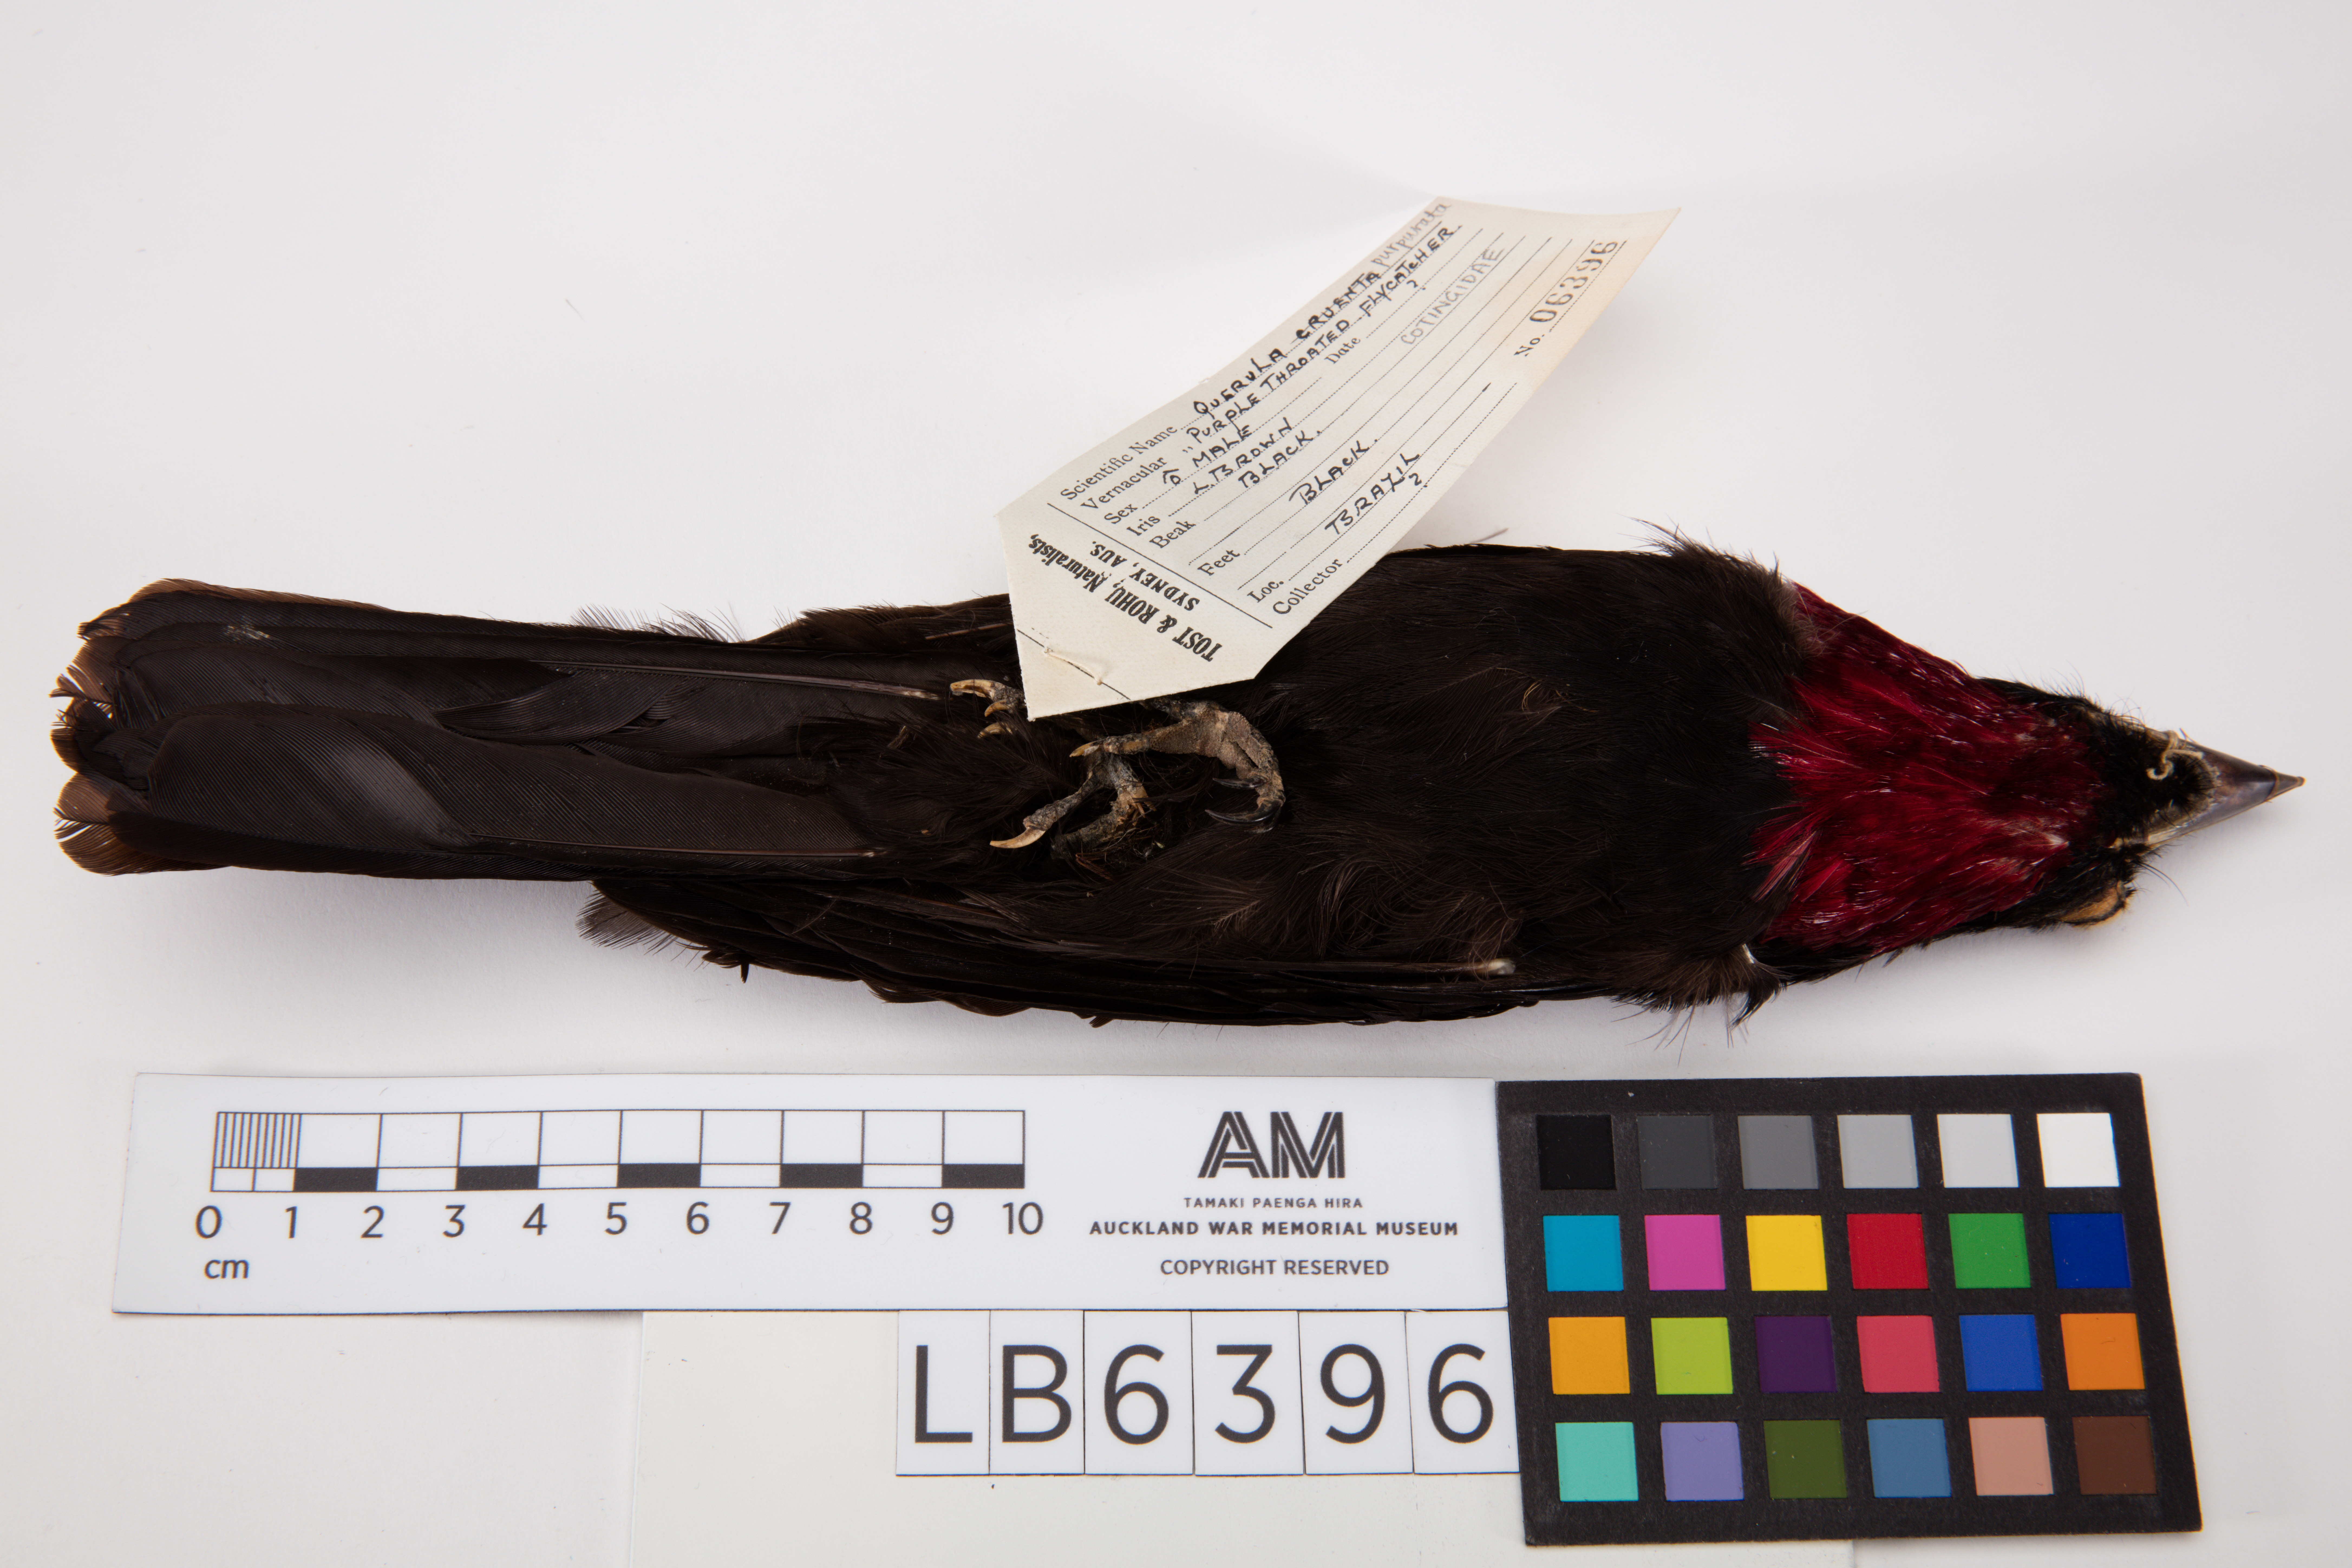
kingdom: Animalia
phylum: Chordata
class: Aves
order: Passeriformes
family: Cotingidae
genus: Querula
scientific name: Querula purpurata
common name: Purple-throated fruitcrow
